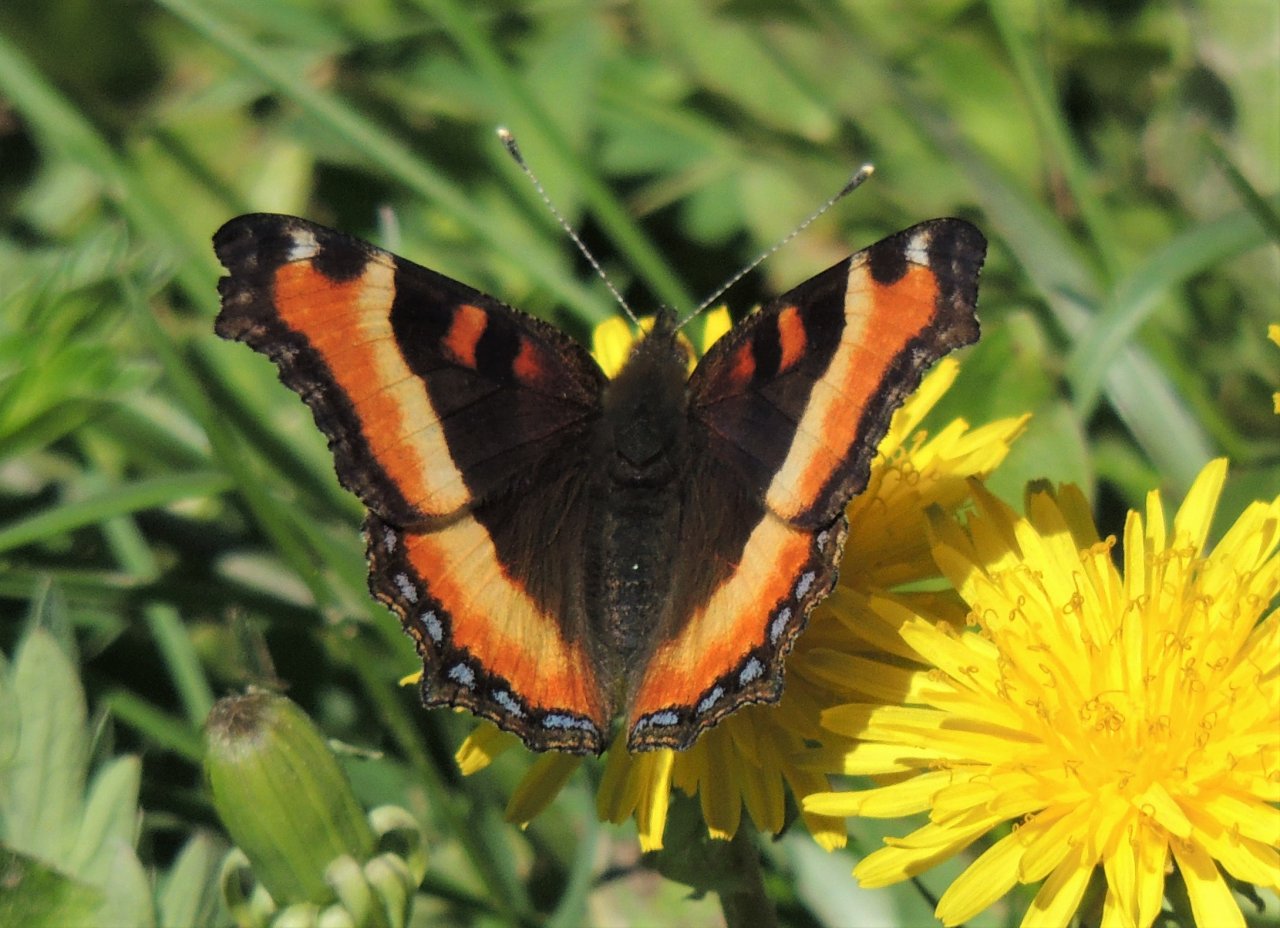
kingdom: Animalia
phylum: Arthropoda
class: Insecta
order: Lepidoptera
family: Nymphalidae
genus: Aglais
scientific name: Aglais milberti
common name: Milbert's Tortoiseshell
